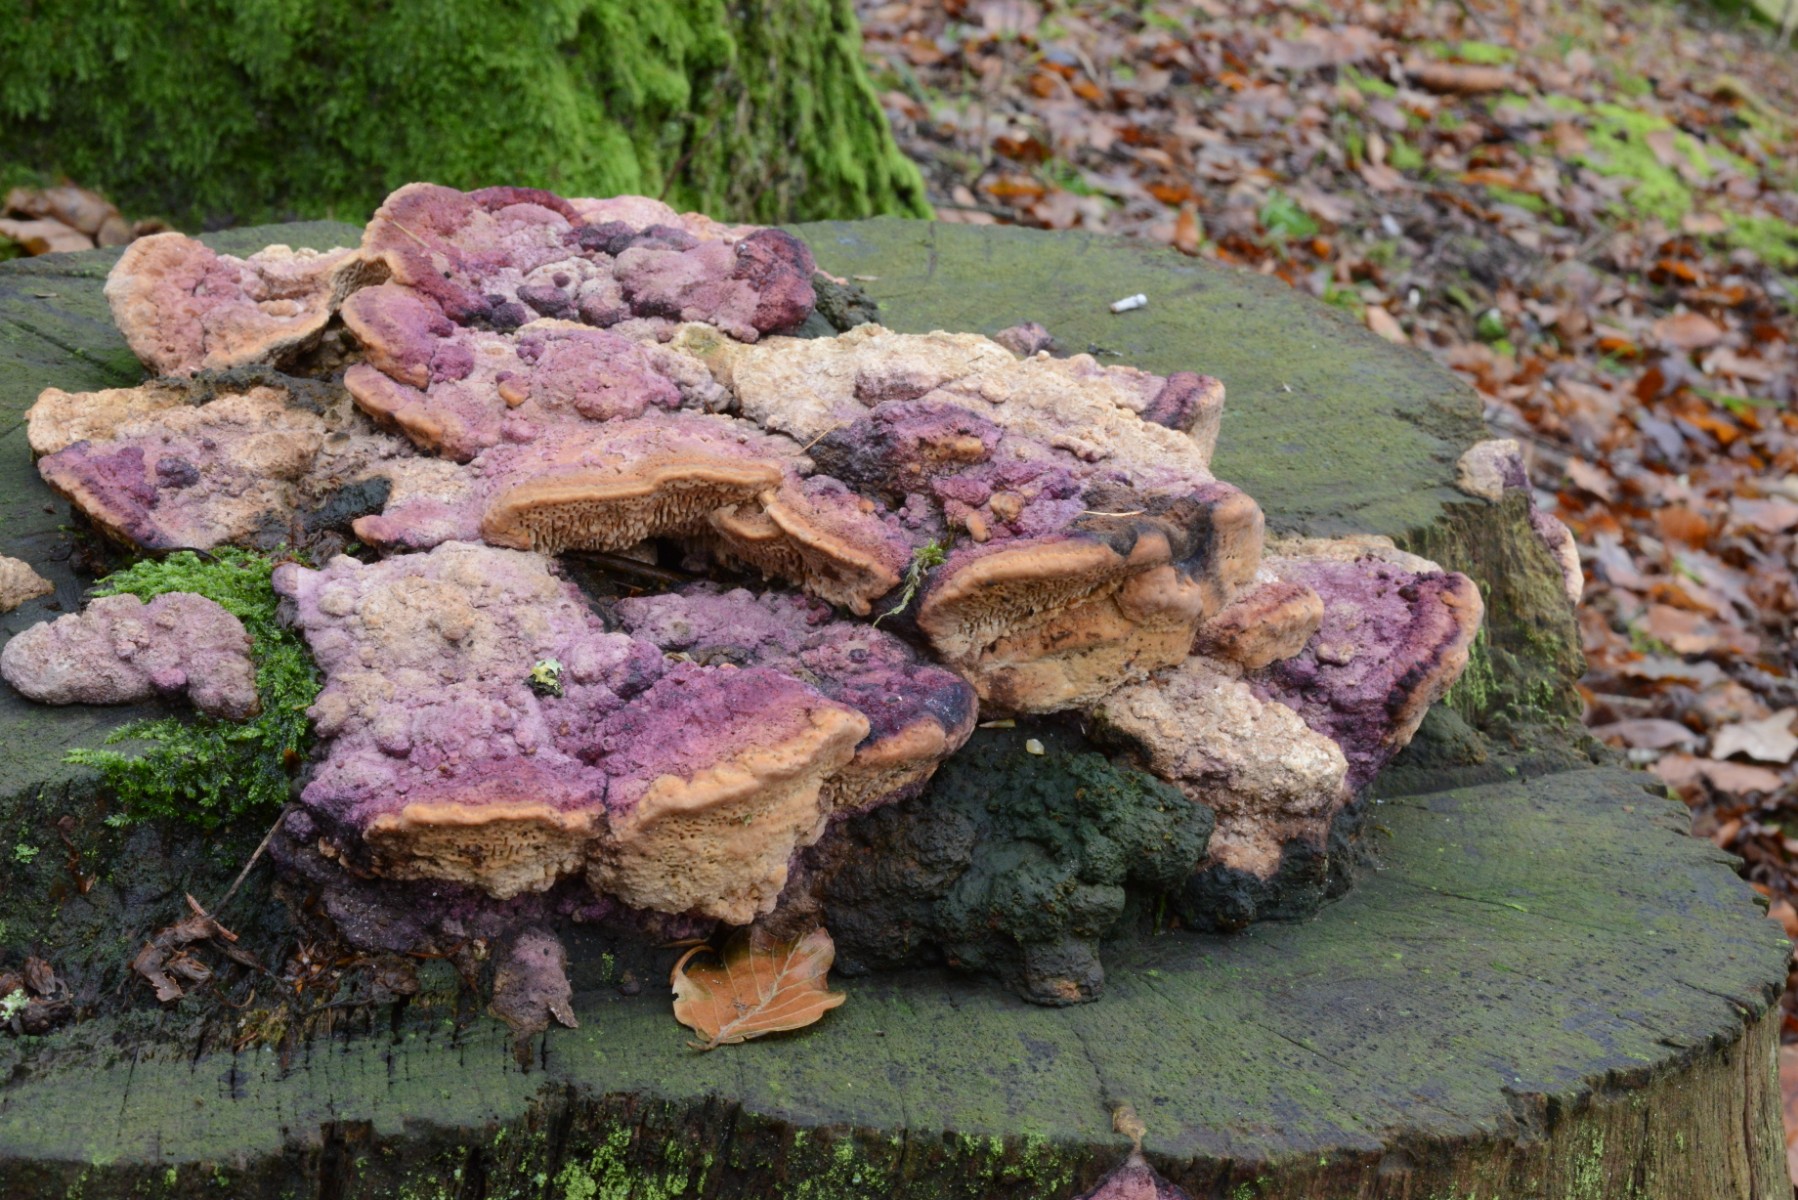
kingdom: Fungi
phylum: Basidiomycota
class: Agaricomycetes
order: Polyporales
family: Fomitopsidaceae
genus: Daedalea
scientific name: Daedalea quercina
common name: ege-labyrintsvamp
